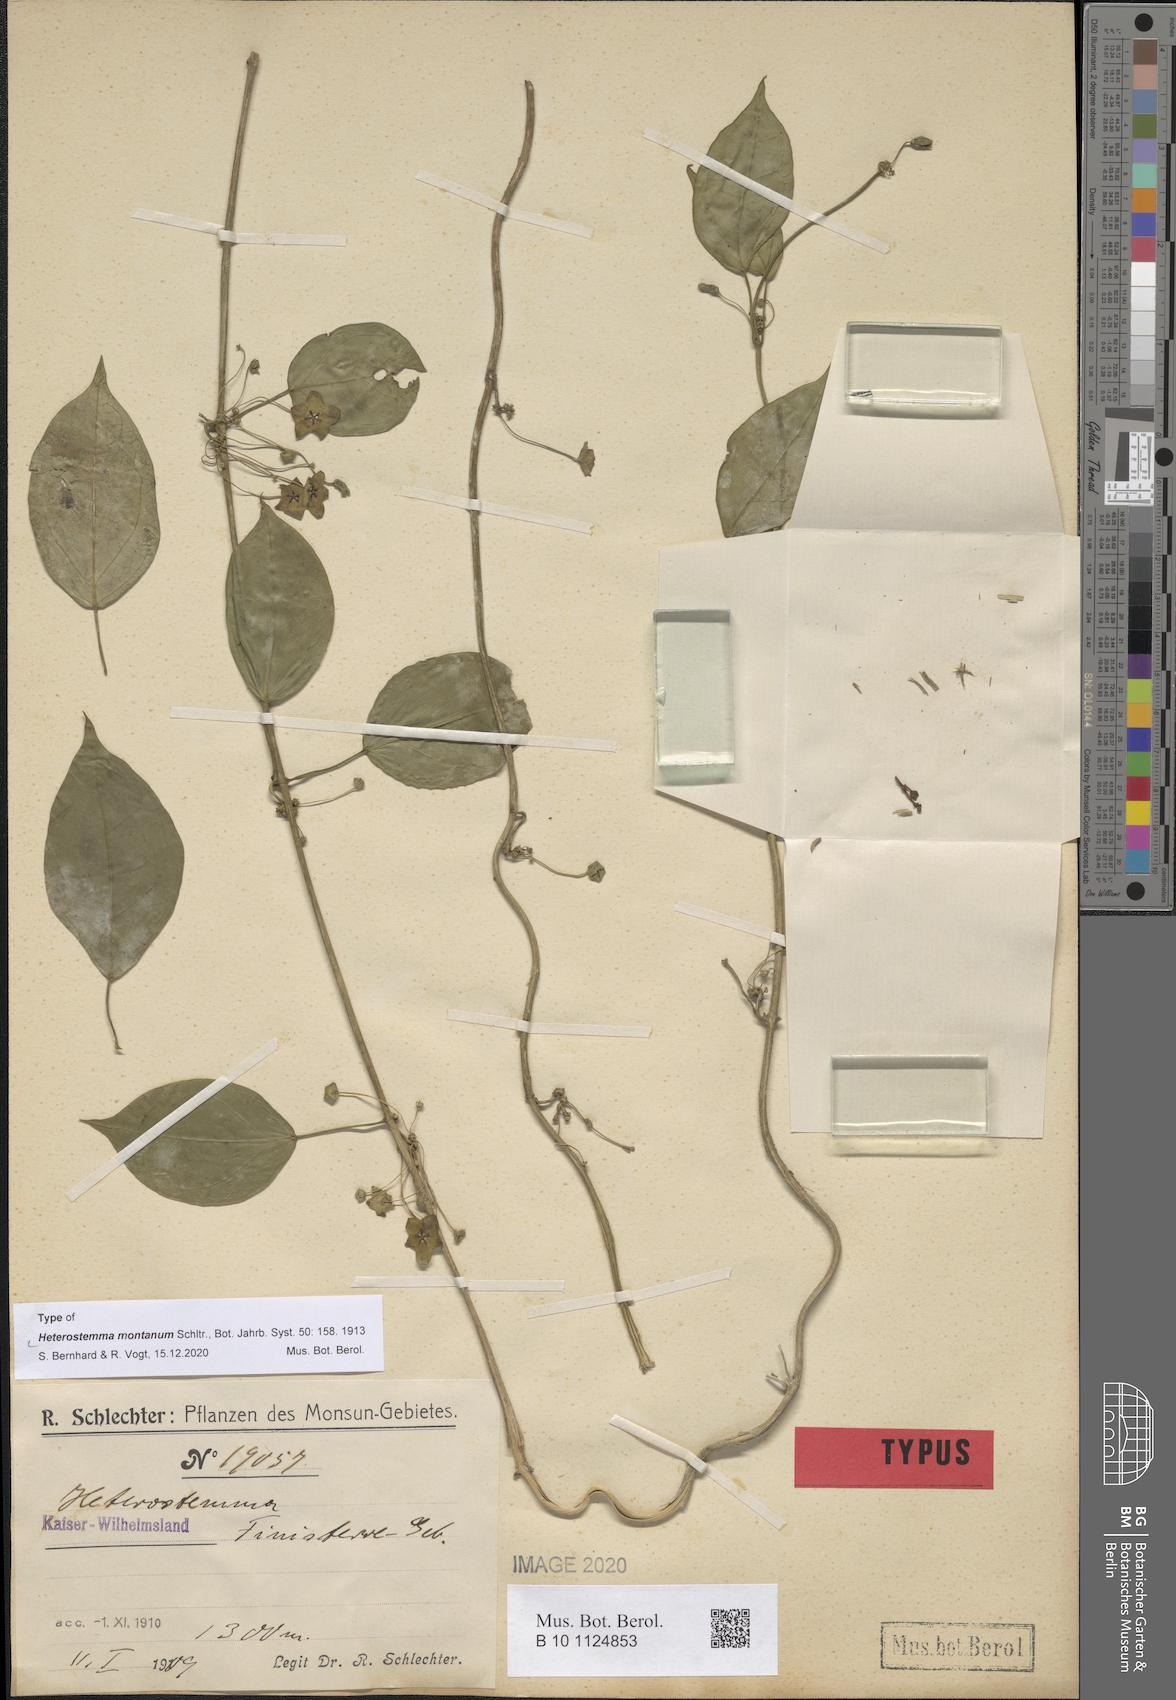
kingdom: Plantae
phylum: Tracheophyta
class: Magnoliopsida
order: Gentianales
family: Apocynaceae
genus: Heterostemma
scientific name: Heterostemma montanum
